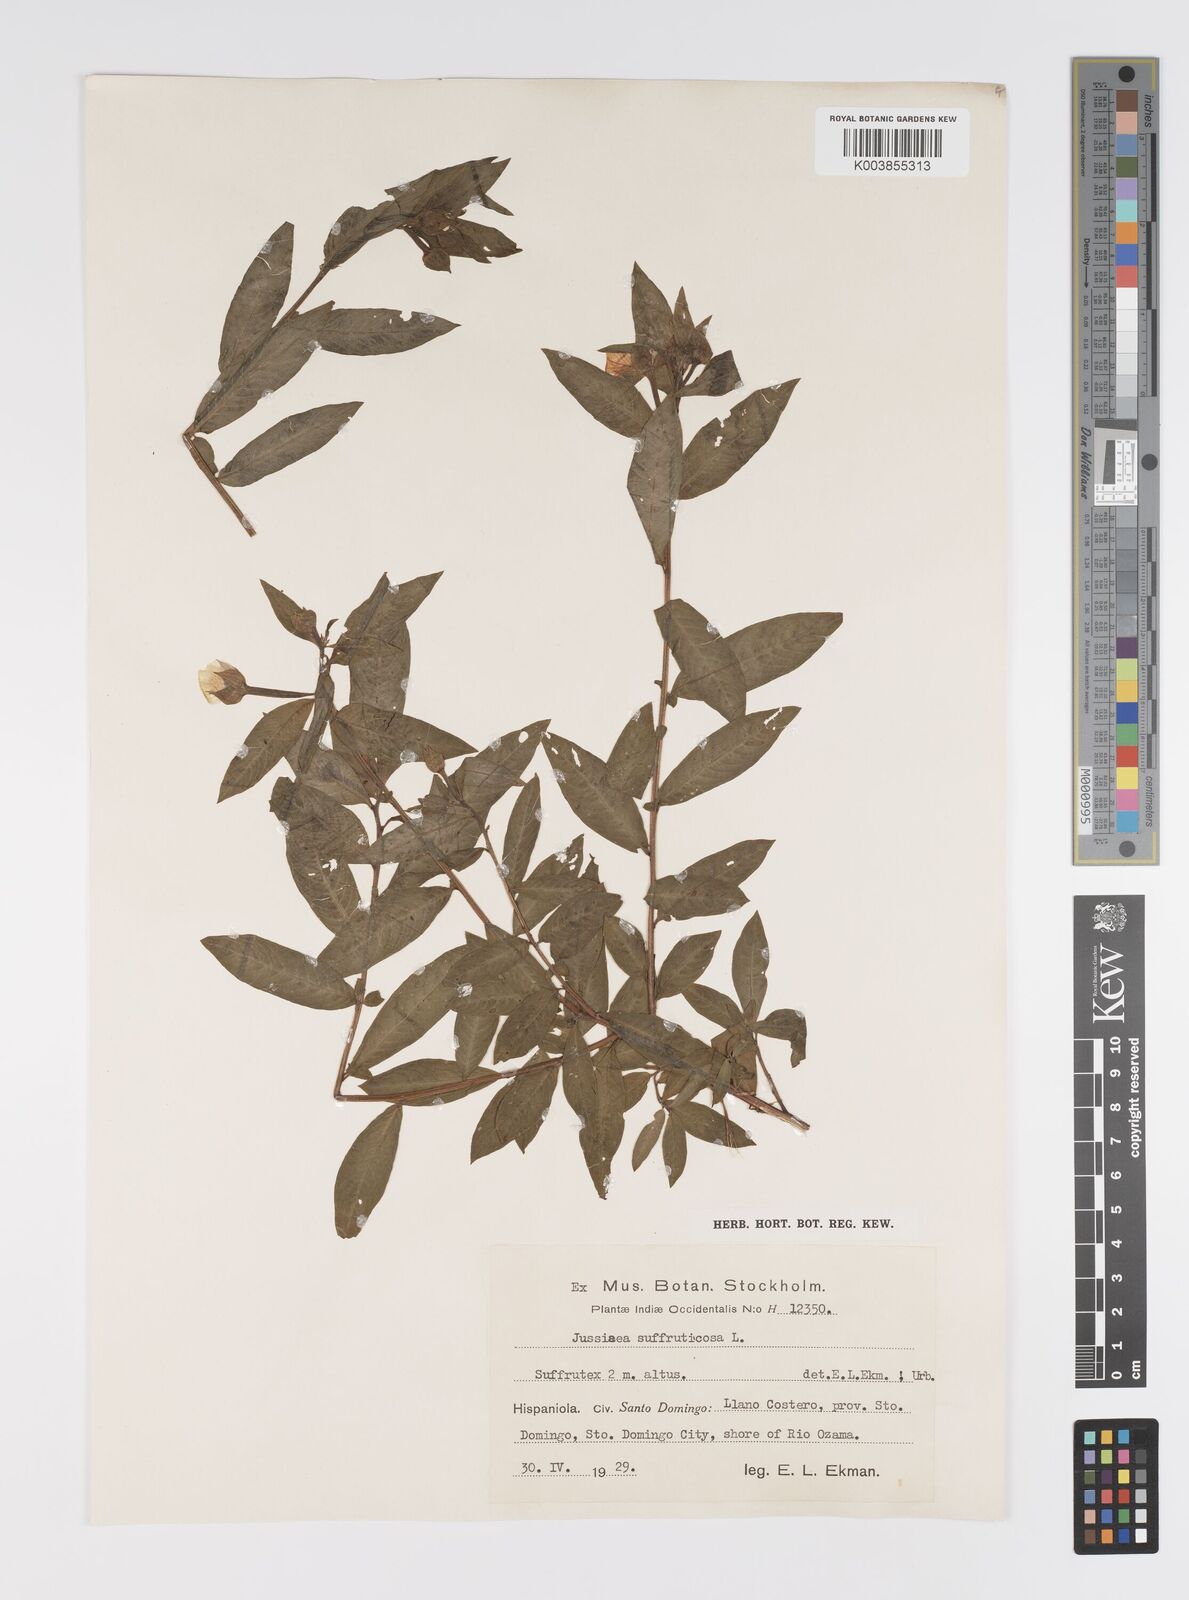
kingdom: Plantae
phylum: Tracheophyta
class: Magnoliopsida
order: Myrtales
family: Onagraceae
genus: Ludwigia
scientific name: Ludwigia octovalvis
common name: Water-primrose
